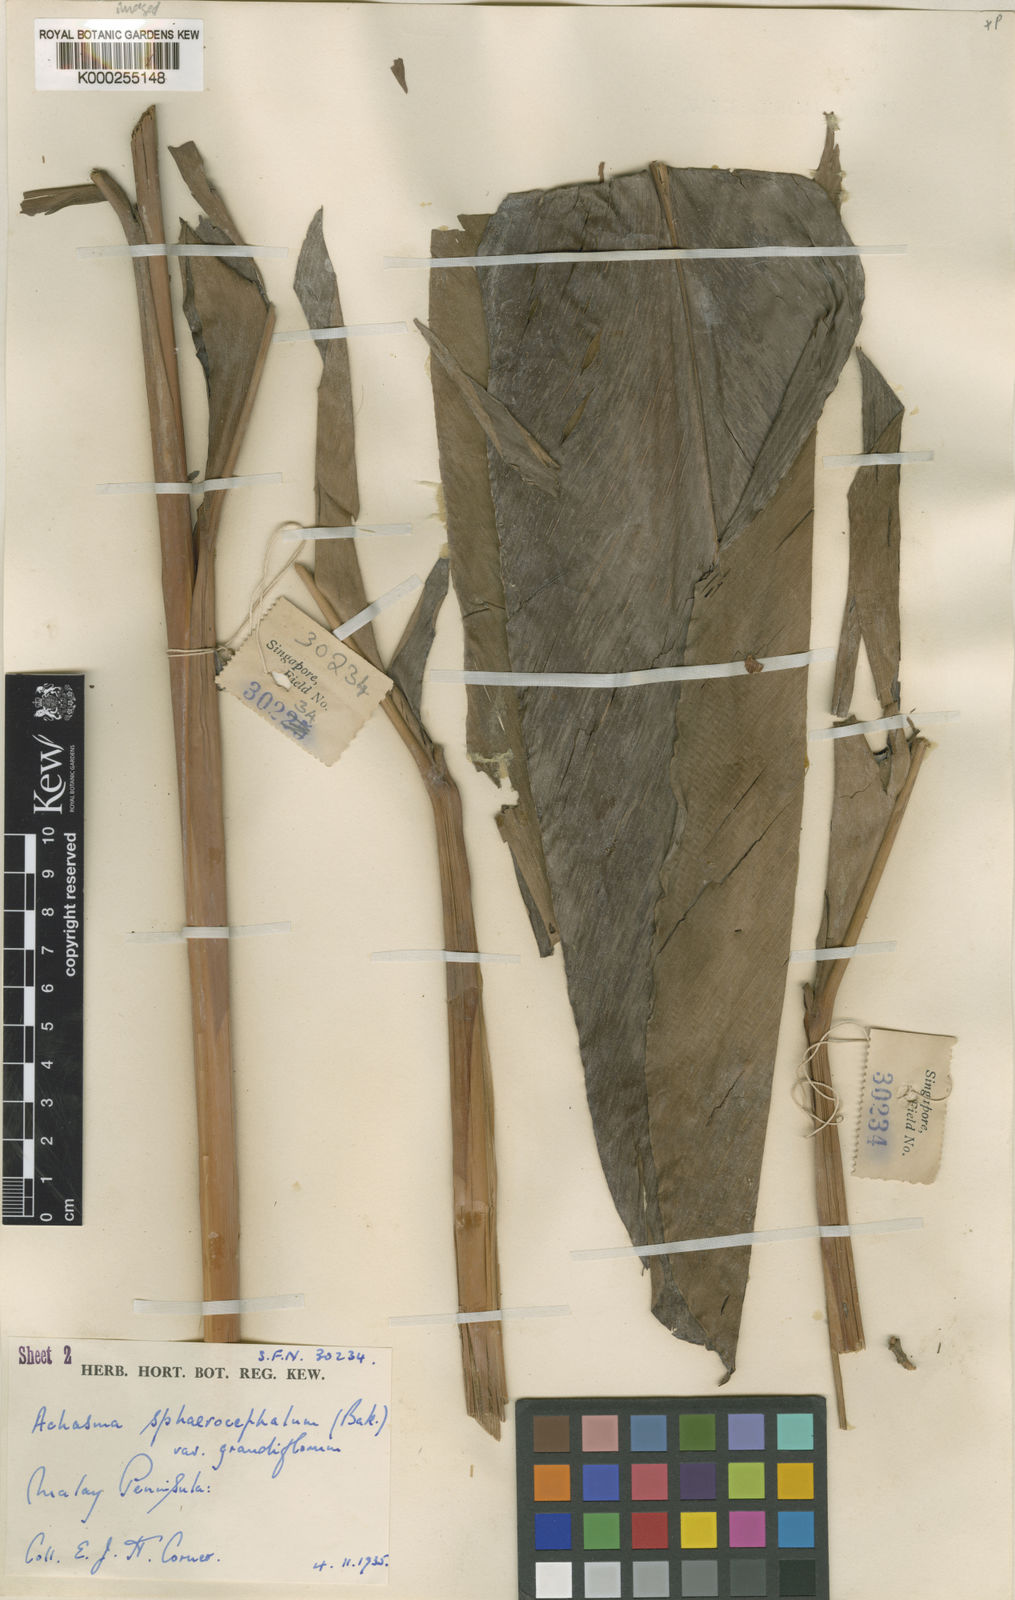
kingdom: Plantae
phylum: Tracheophyta
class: Liliopsida
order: Zingiberales
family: Zingiberaceae
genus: Etlingera
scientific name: Etlingera
